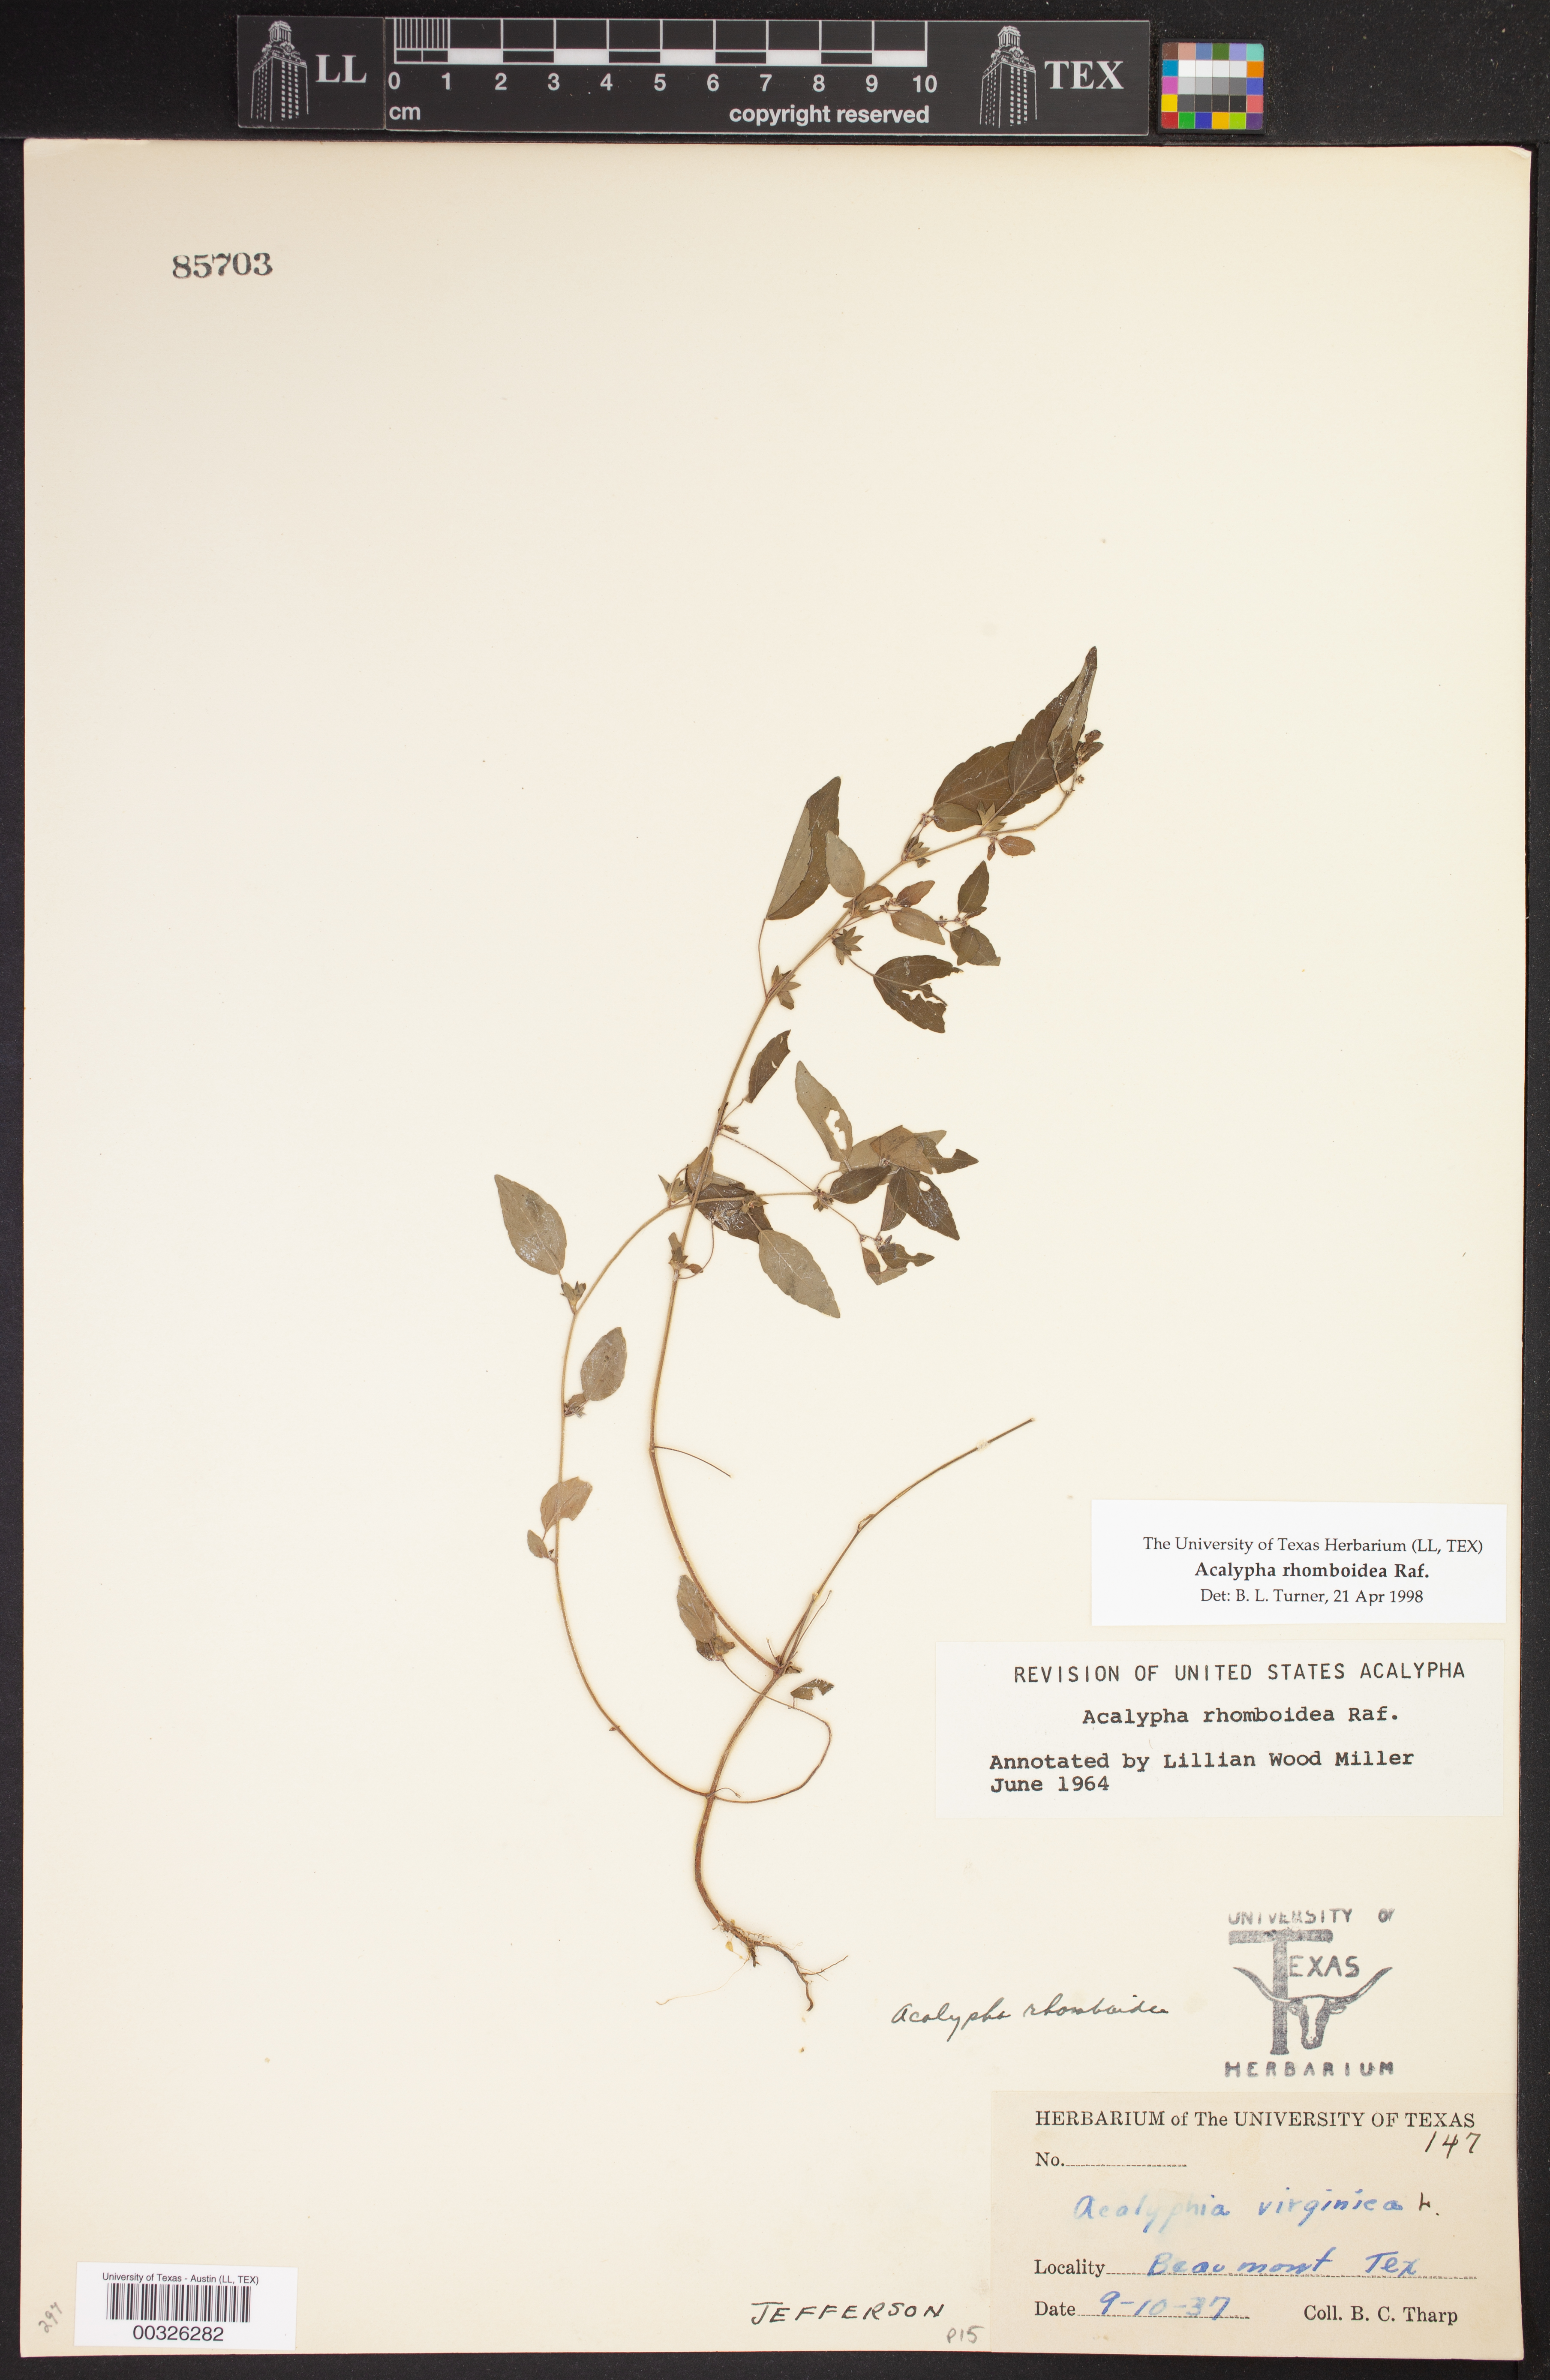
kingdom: Plantae
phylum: Tracheophyta
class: Magnoliopsida
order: Malpighiales
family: Euphorbiaceae
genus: Acalypha
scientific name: Acalypha rhomboidea
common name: Rhombic copperleaf
